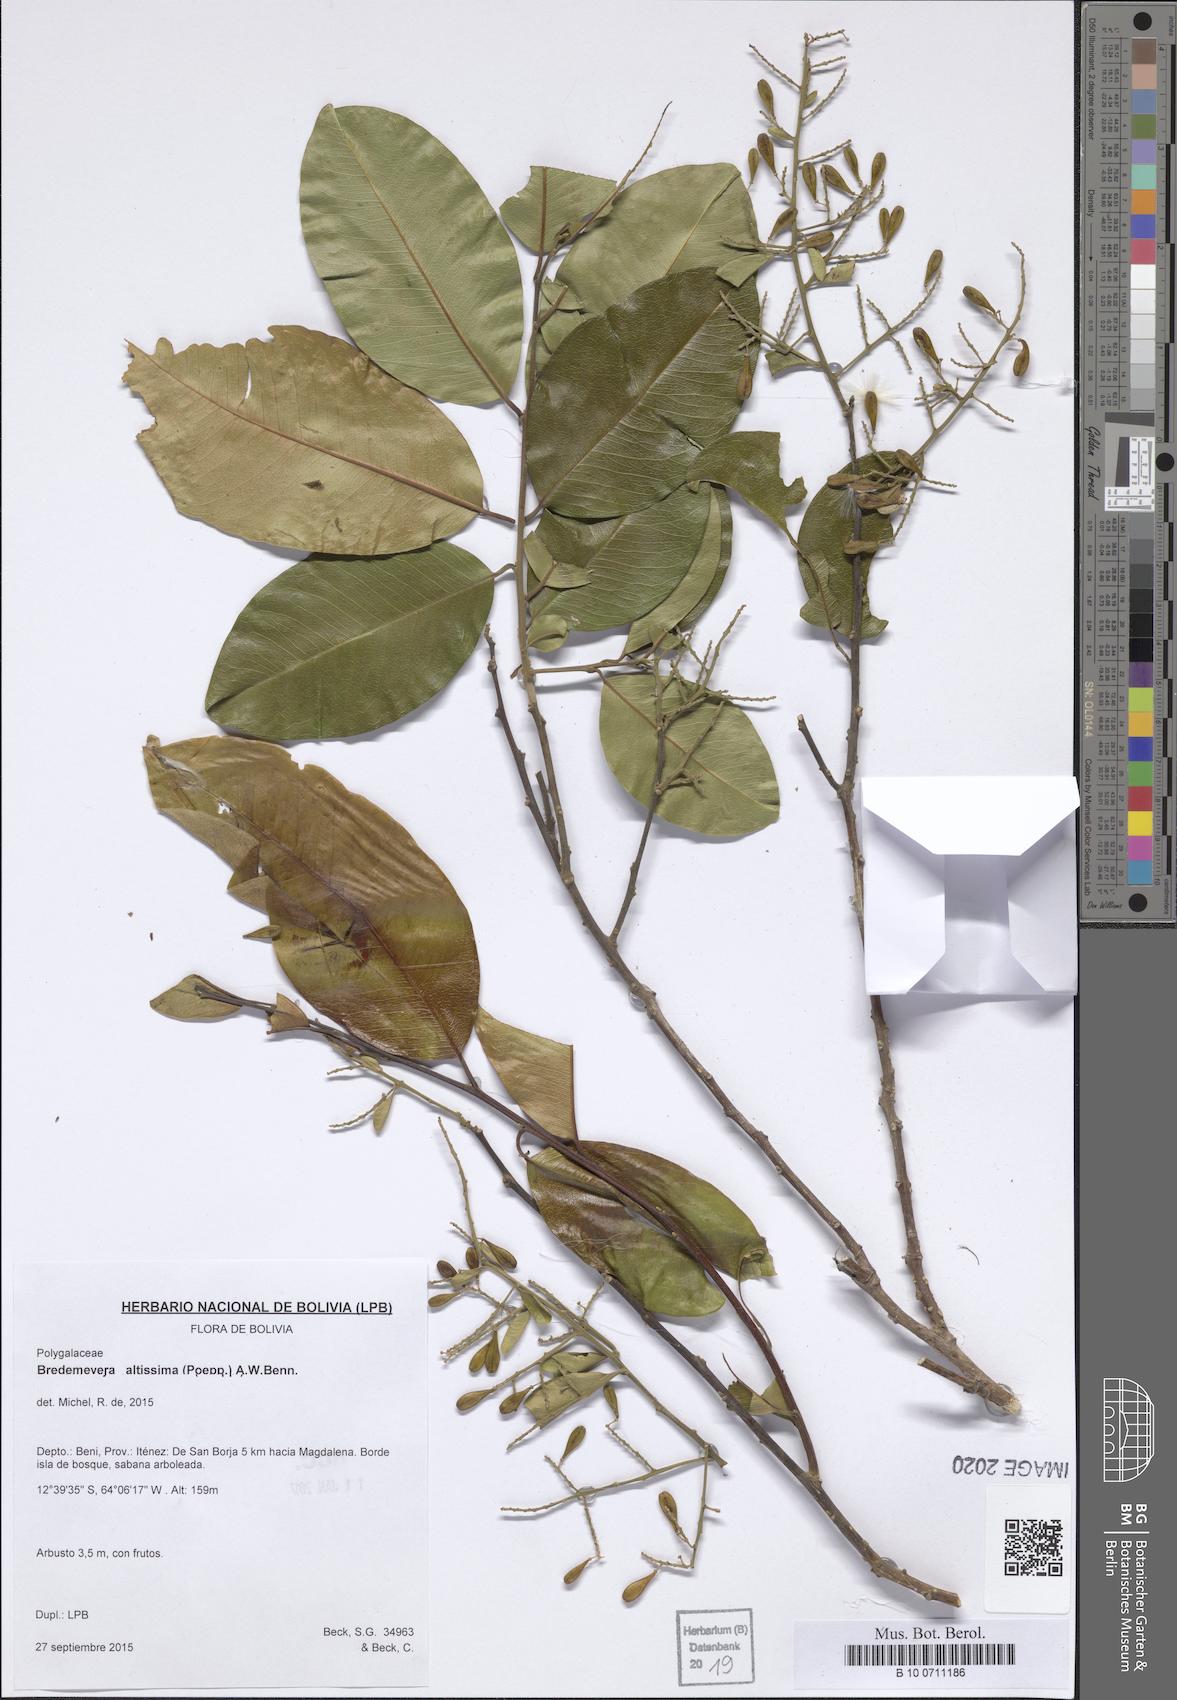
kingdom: Plantae
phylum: Tracheophyta
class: Magnoliopsida
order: Fabales
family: Polygalaceae
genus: Bredemeyera
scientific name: Bredemeyera divaricata
